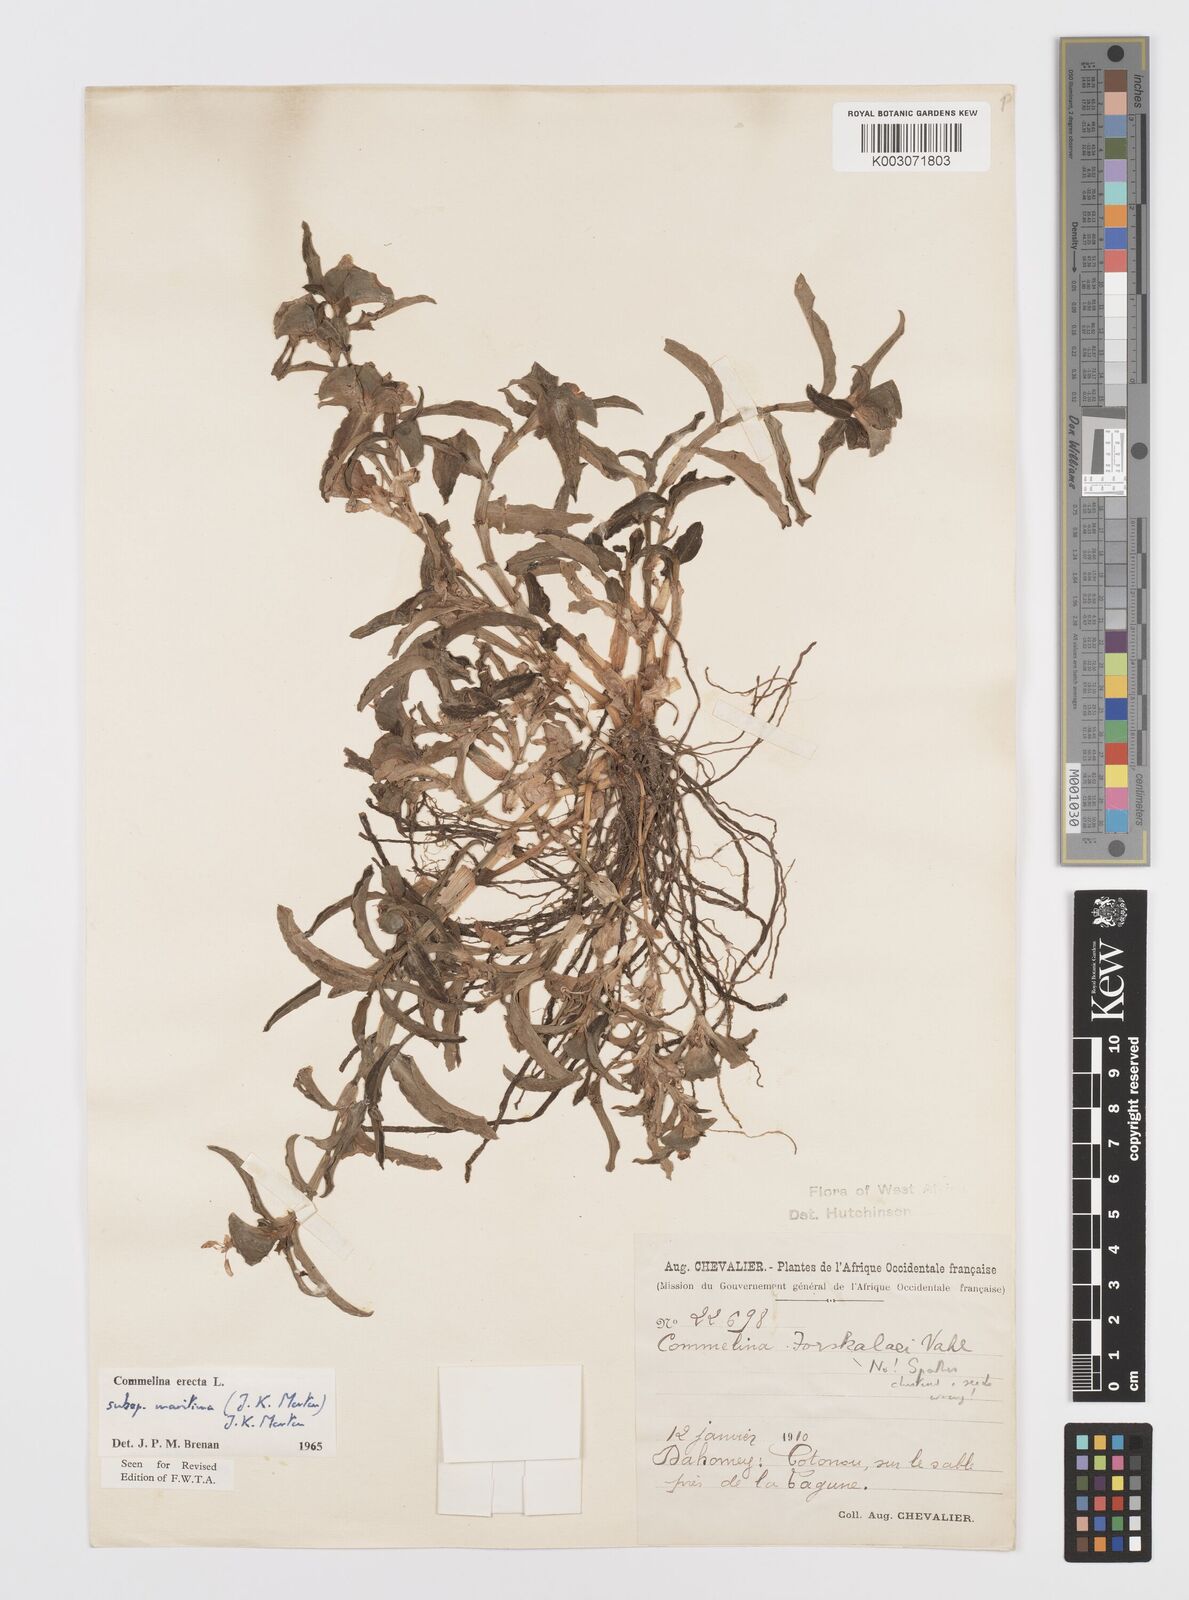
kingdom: Plantae
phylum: Tracheophyta
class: Liliopsida
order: Commelinales
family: Commelinaceae
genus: Commelina
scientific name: Commelina erecta
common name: Blousel blommetjie
